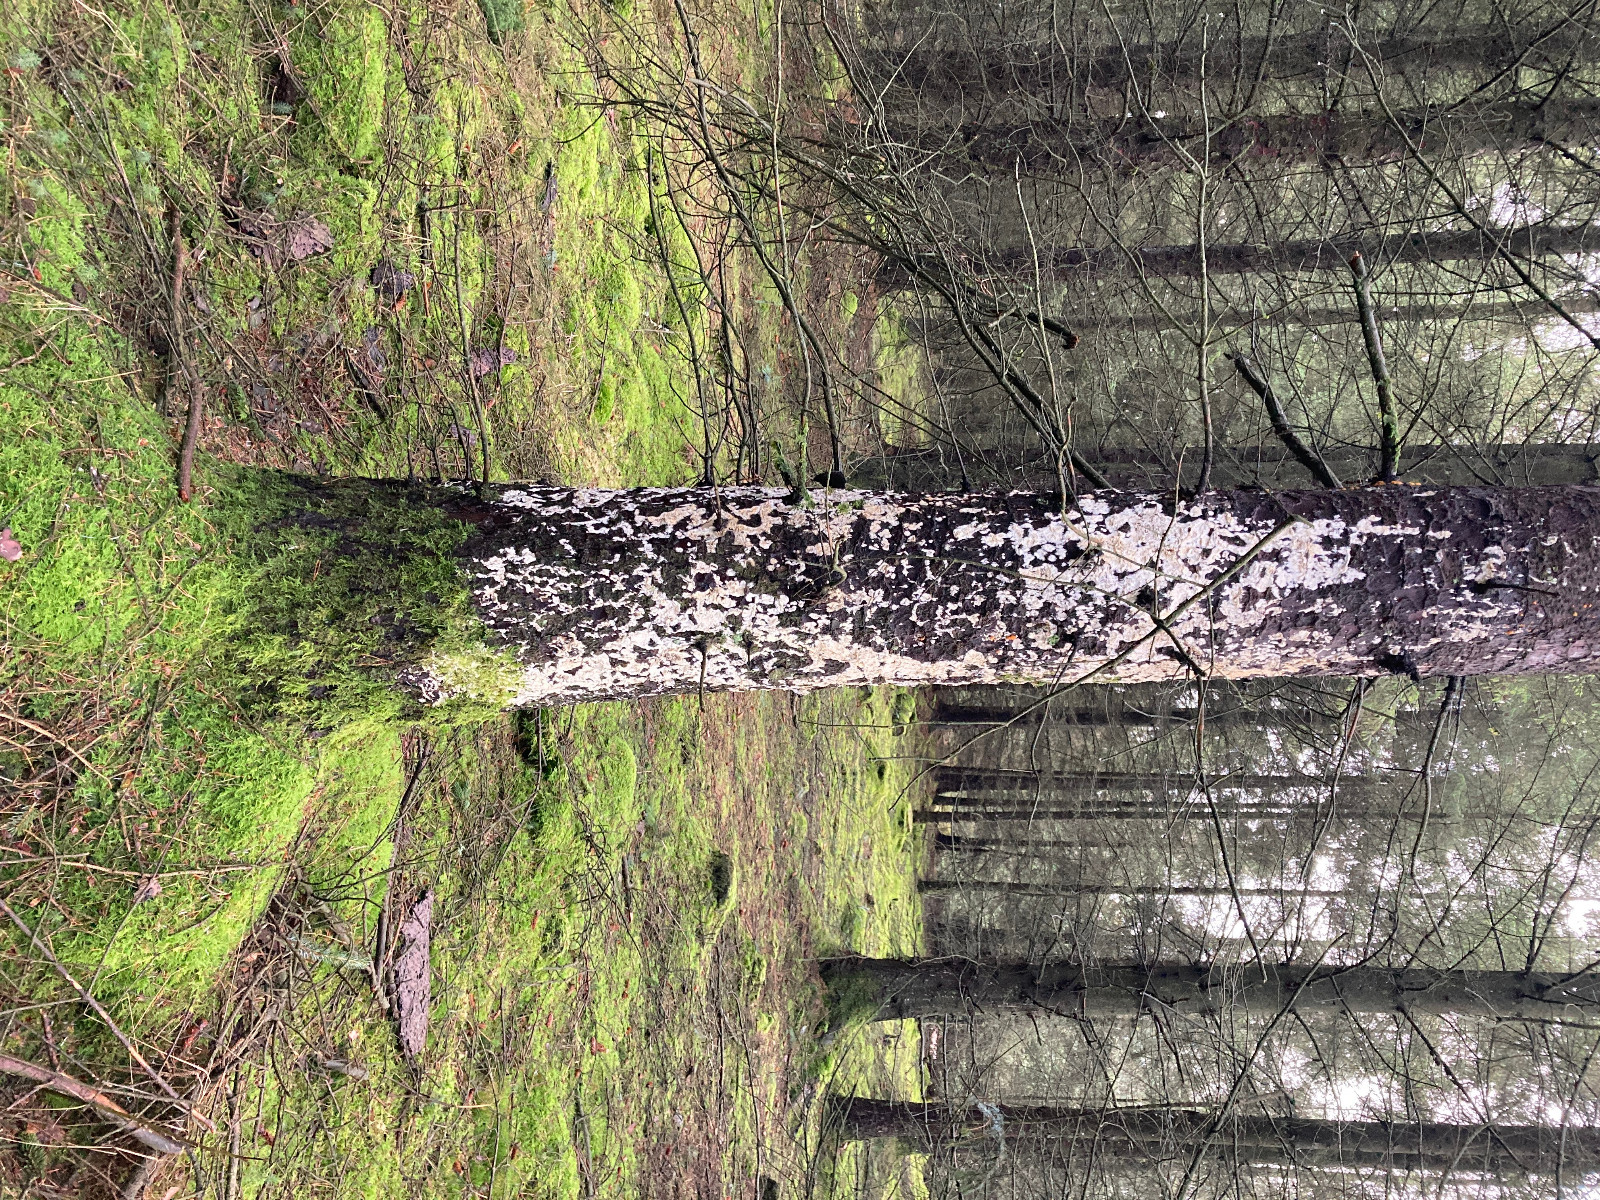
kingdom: Fungi
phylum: Basidiomycota
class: Agaricomycetes
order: Hymenochaetales
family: Schizoporaceae
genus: Xylodon
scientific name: Xylodon
